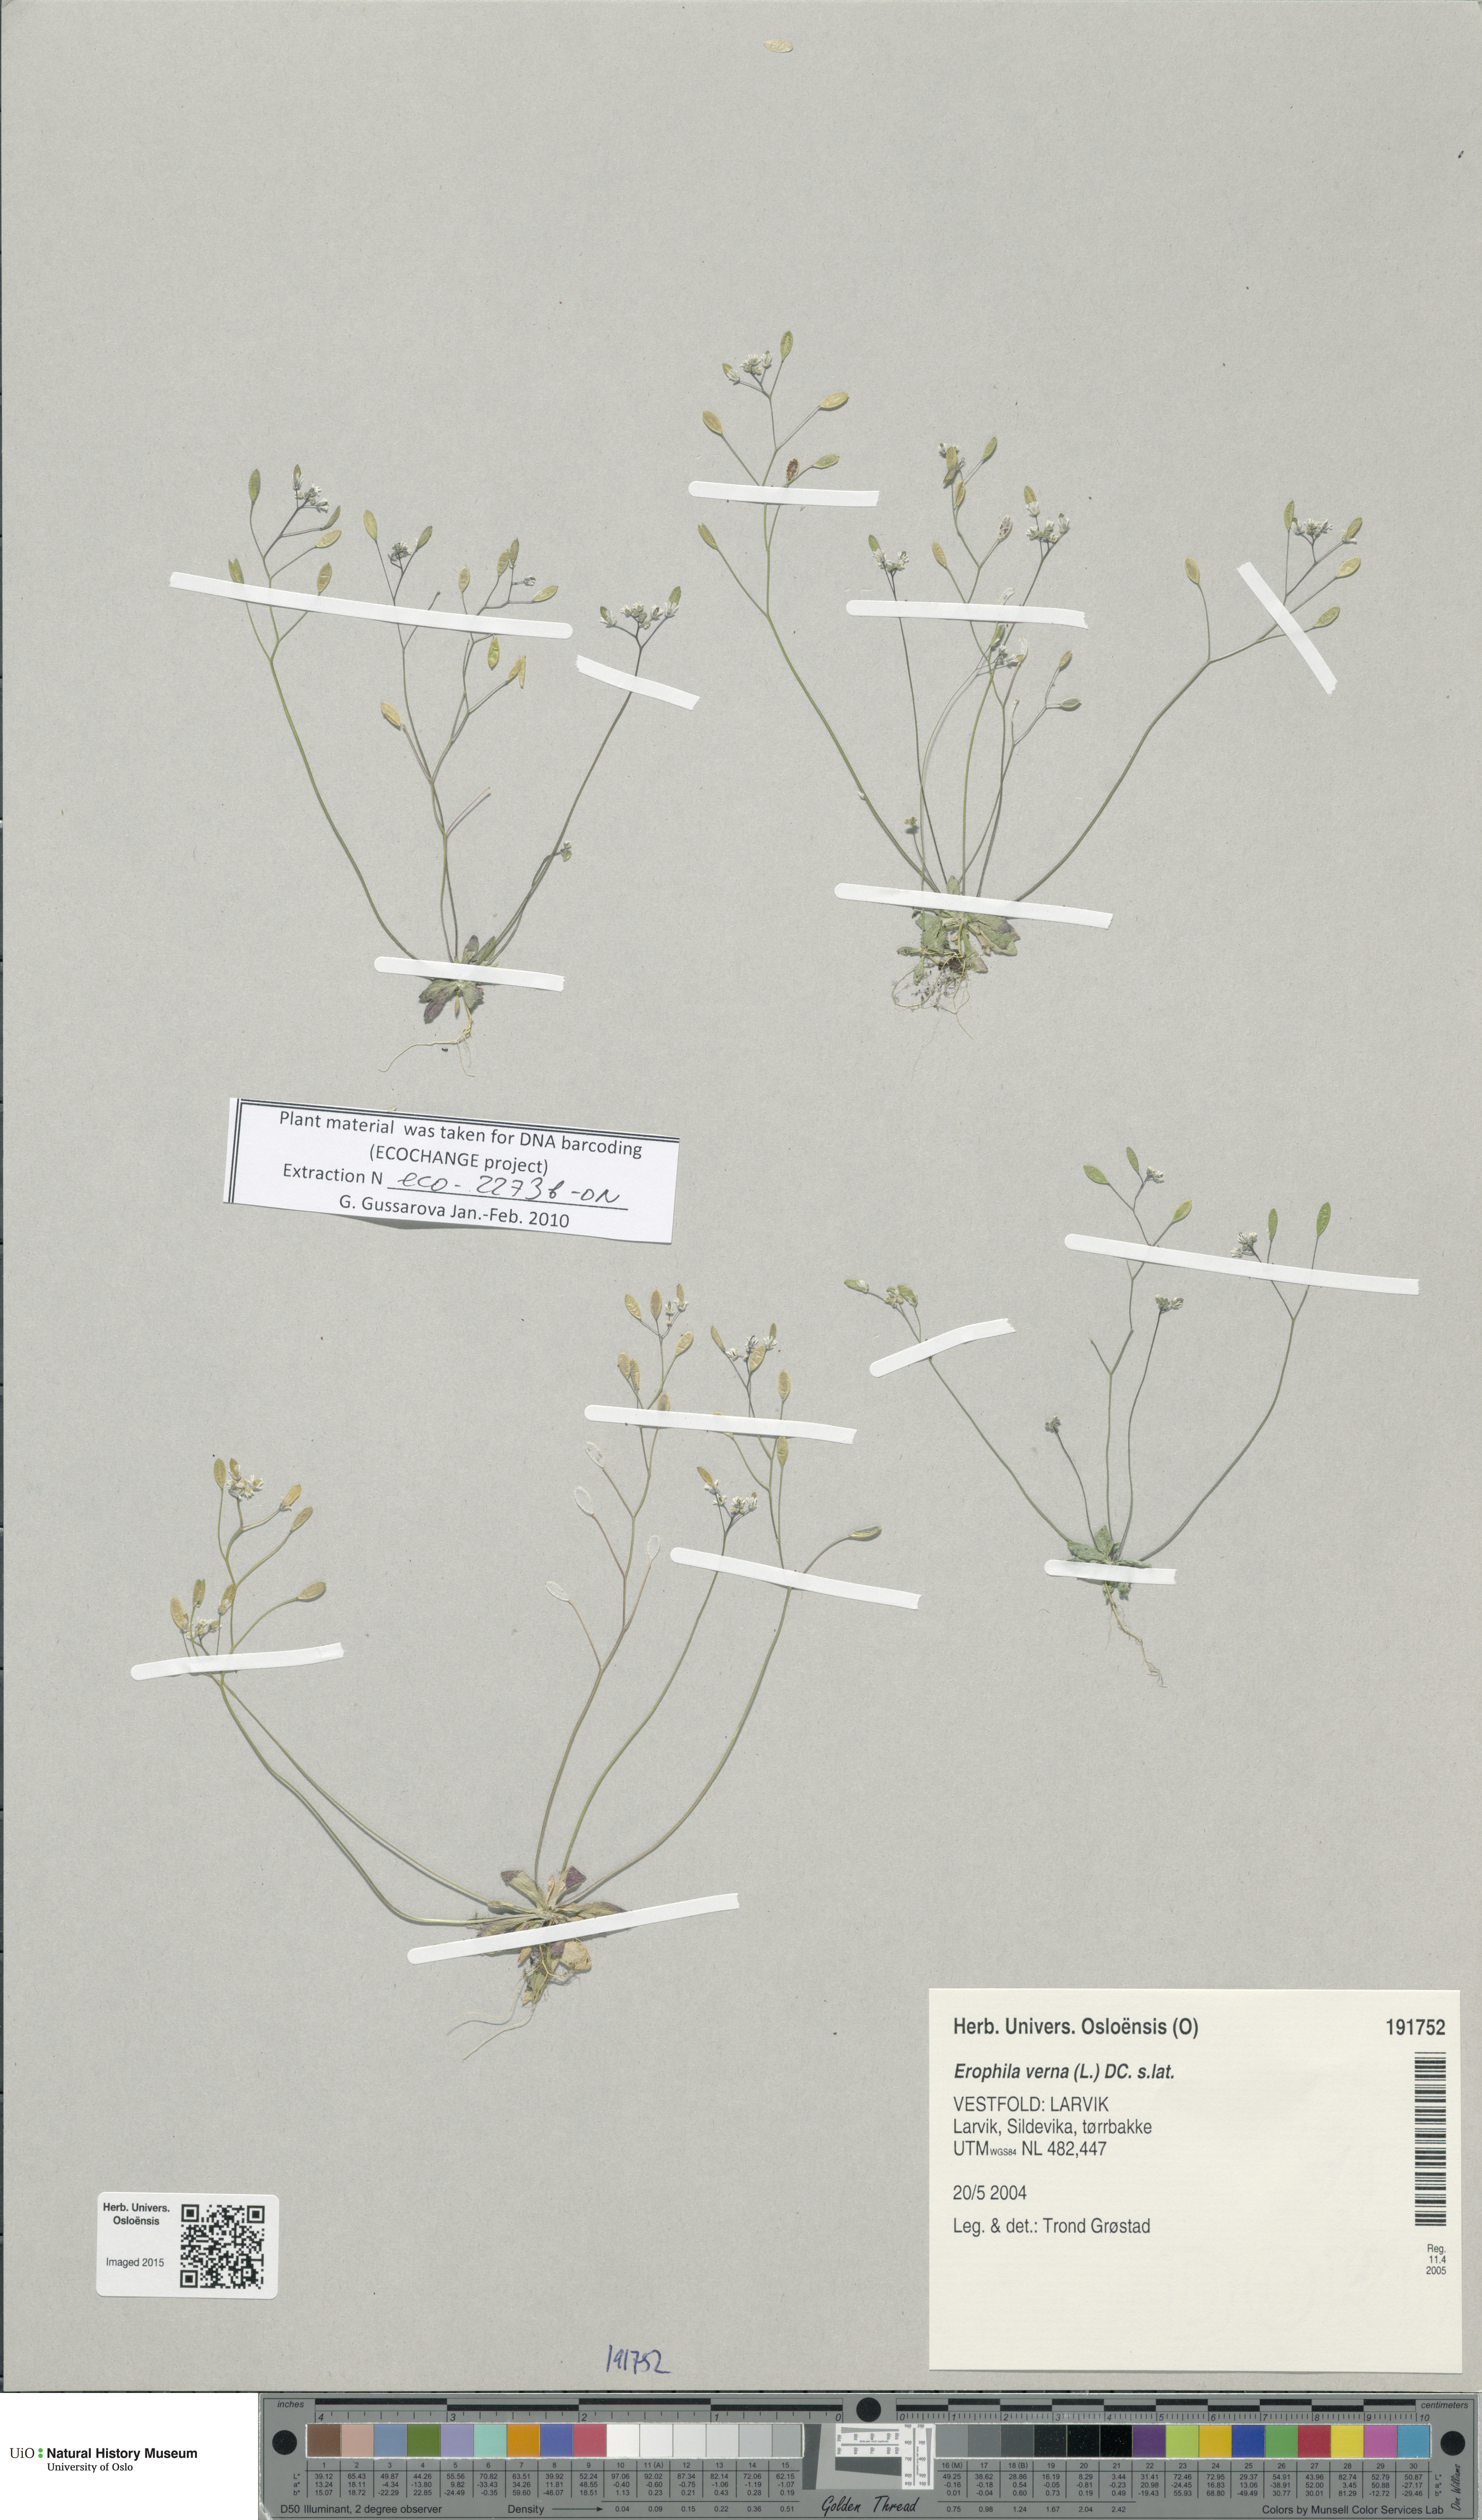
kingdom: Plantae
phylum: Tracheophyta
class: Magnoliopsida
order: Brassicales
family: Brassicaceae
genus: Draba
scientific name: Draba verna
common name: Spring draba
